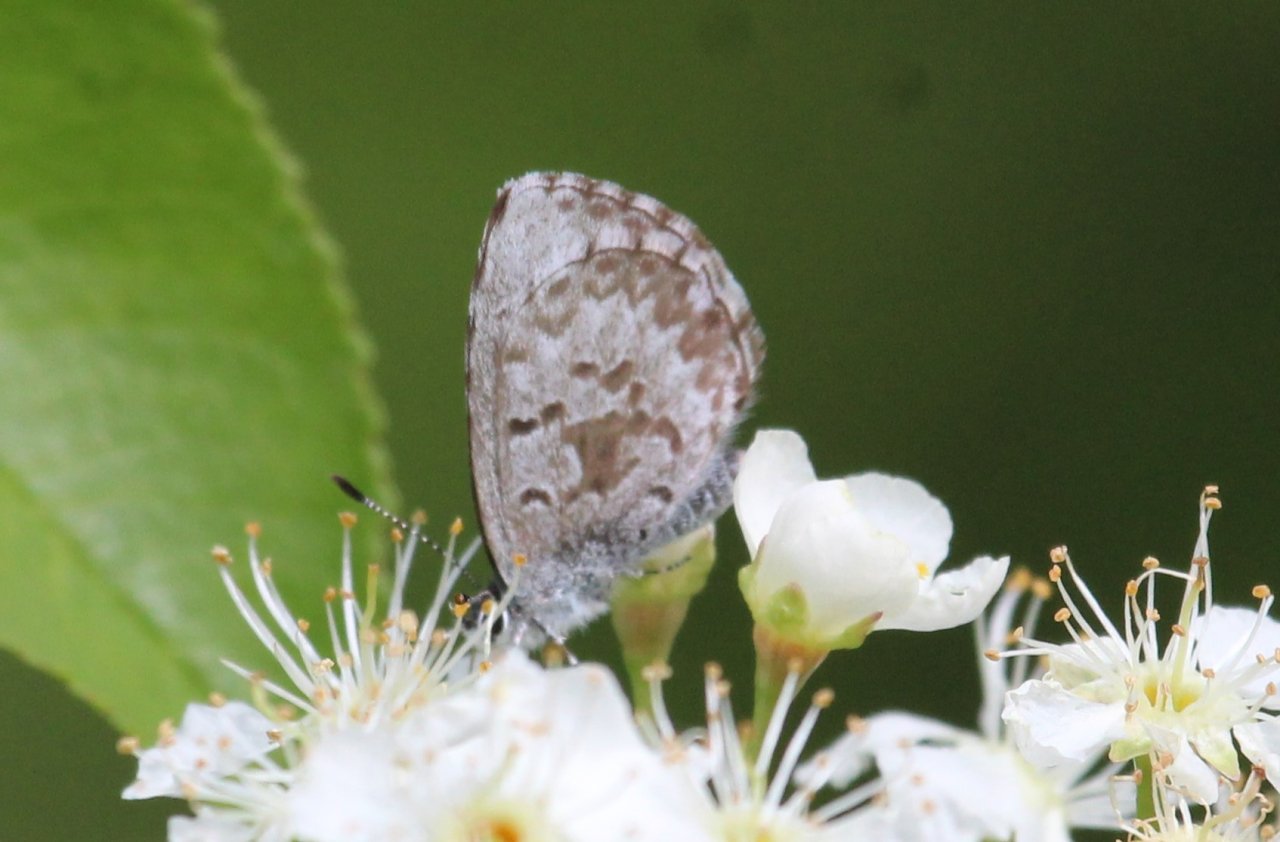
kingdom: Animalia
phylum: Arthropoda
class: Insecta
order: Lepidoptera
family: Lycaenidae
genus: Celastrina
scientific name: Celastrina lucia
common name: Northern Spring Azure
